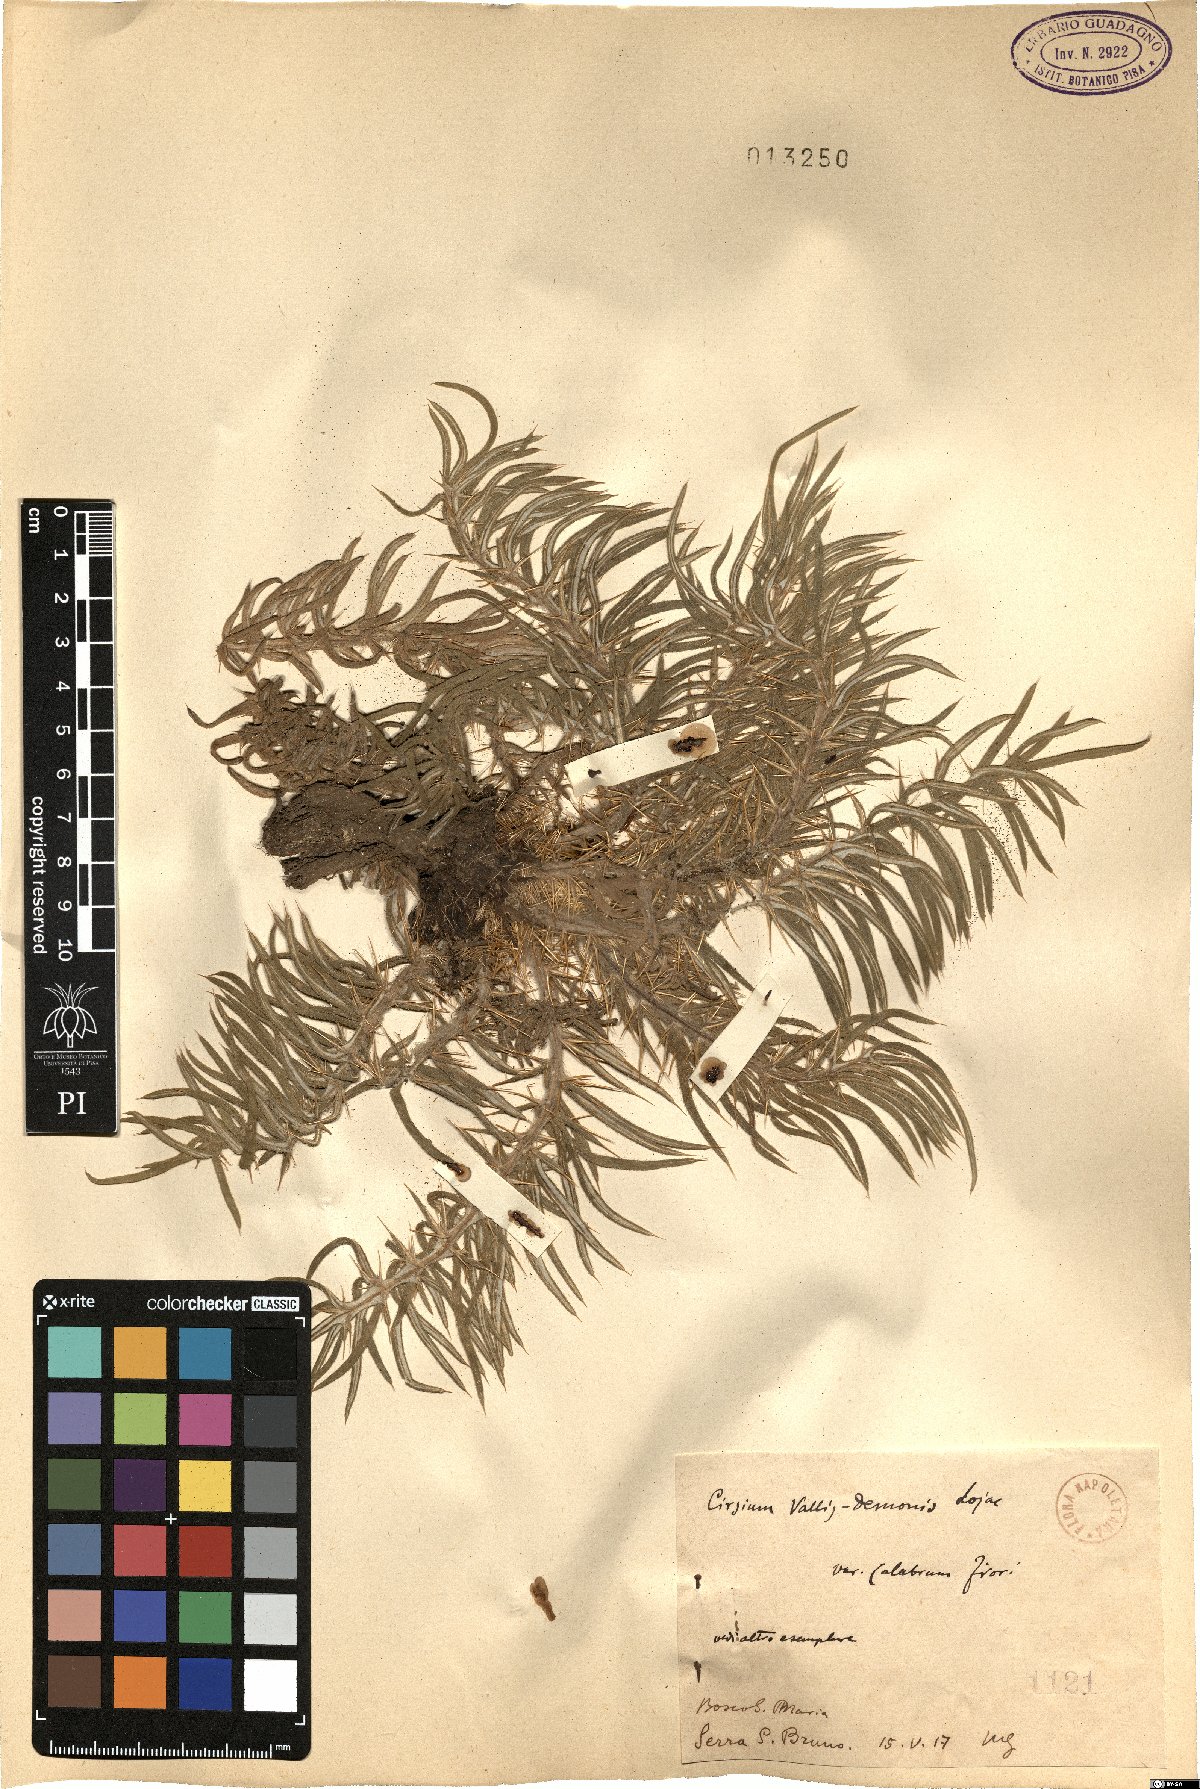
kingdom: Plantae
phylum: Tracheophyta
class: Magnoliopsida
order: Asterales
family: Asteraceae
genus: Lophiolepis
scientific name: Lophiolepis vallis-demonii
